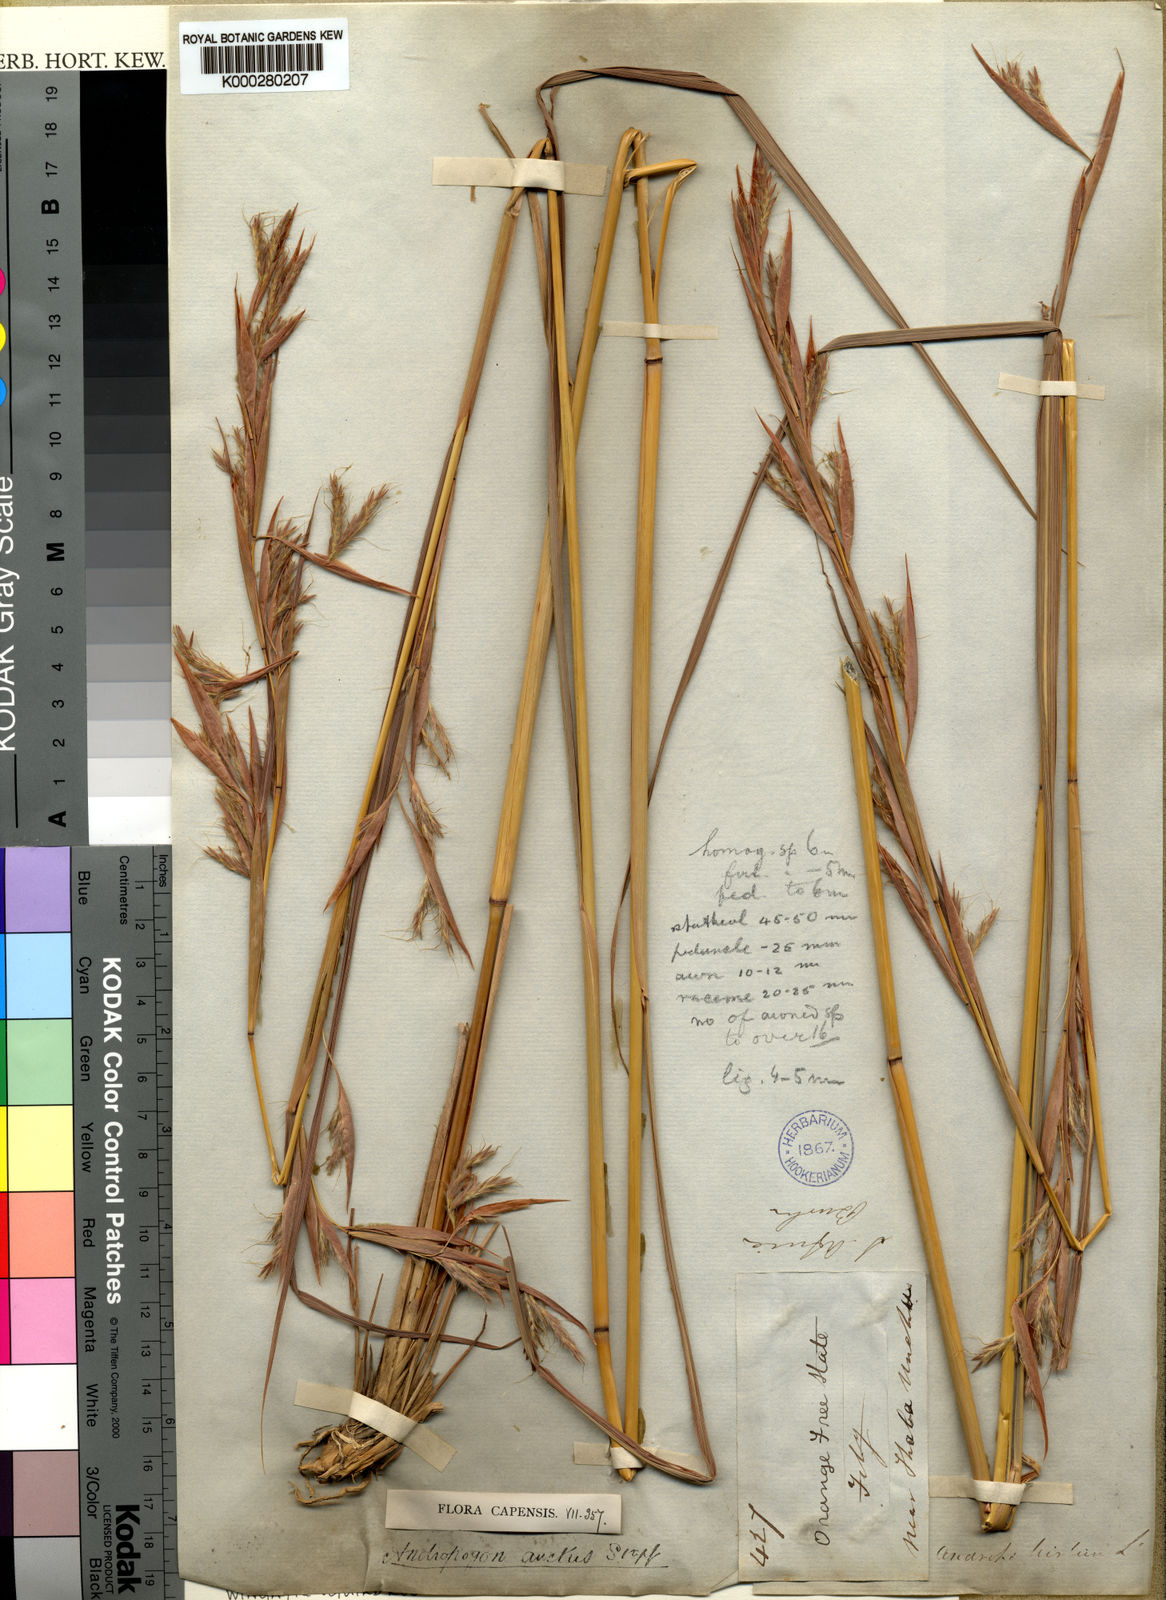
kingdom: Plantae
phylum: Tracheophyta
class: Liliopsida
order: Poales
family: Poaceae
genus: Hyparrhenia
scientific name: Hyparrhenia dregeana
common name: Silky thatching grass
